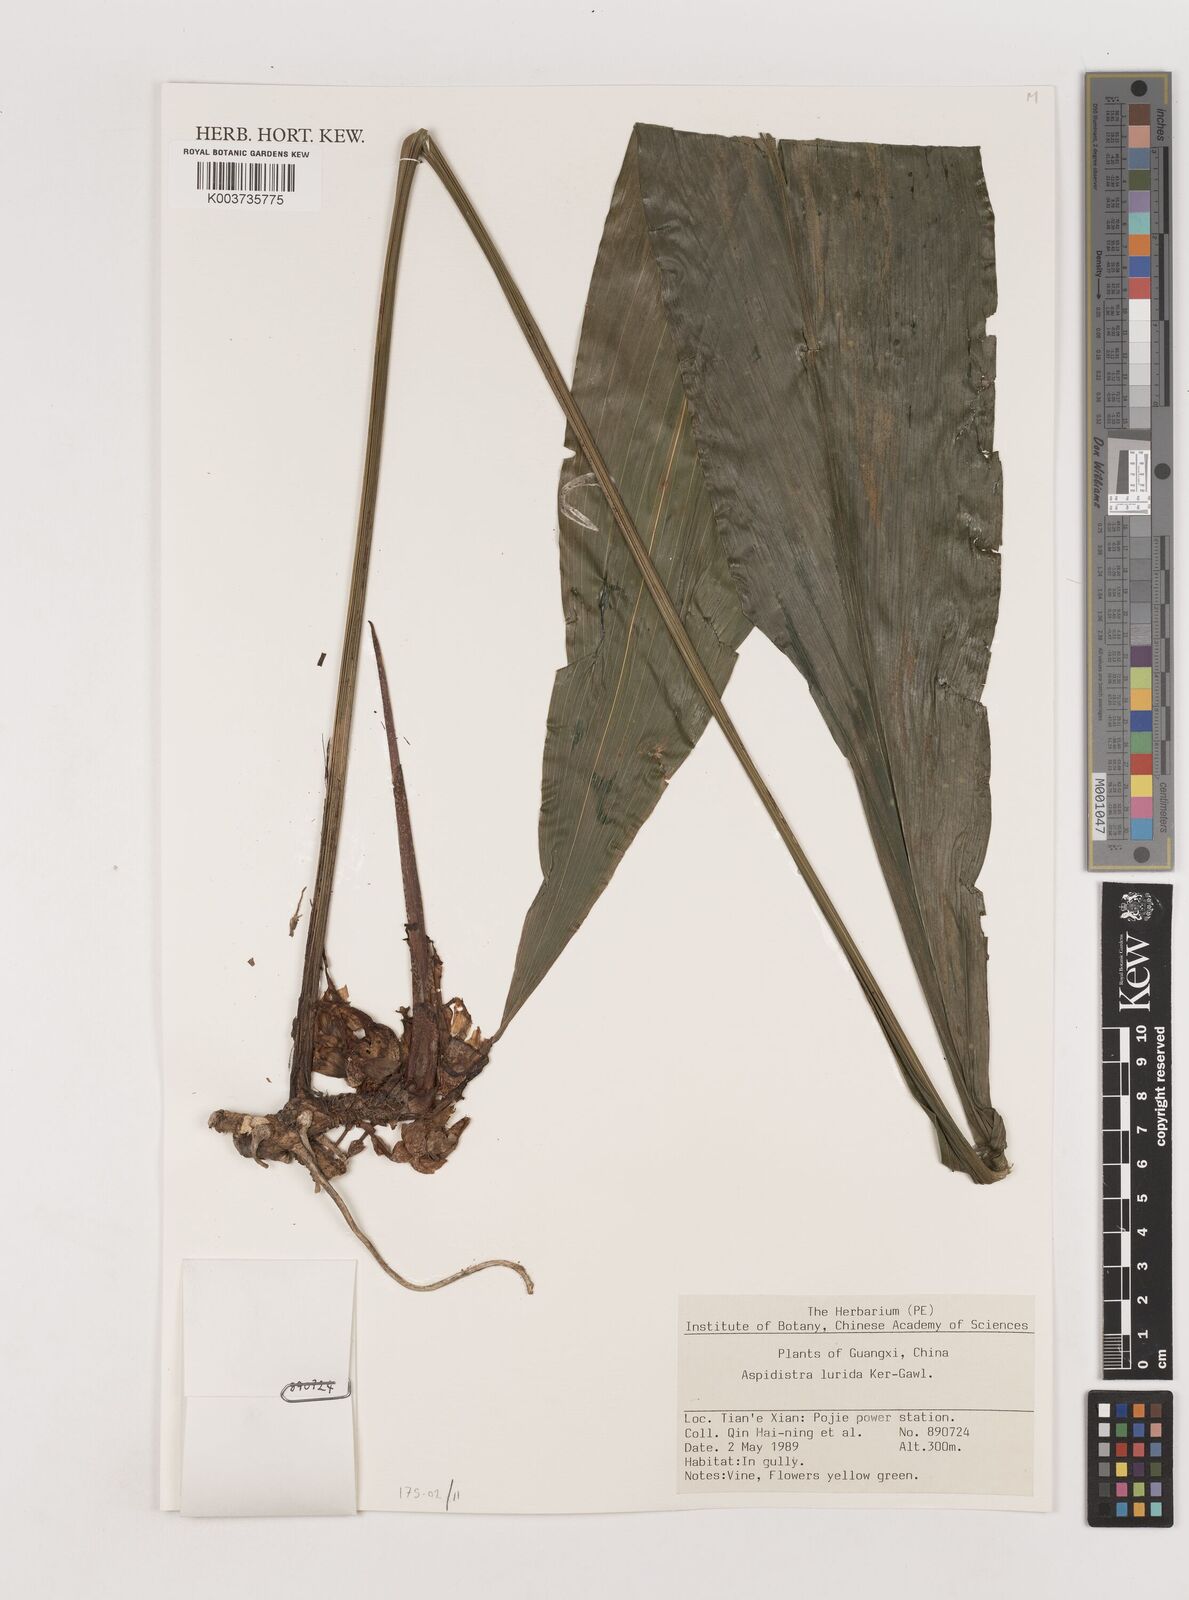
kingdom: Plantae
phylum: Tracheophyta
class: Liliopsida
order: Asparagales
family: Asparagaceae
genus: Aspidistra
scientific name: Aspidistra lurida
